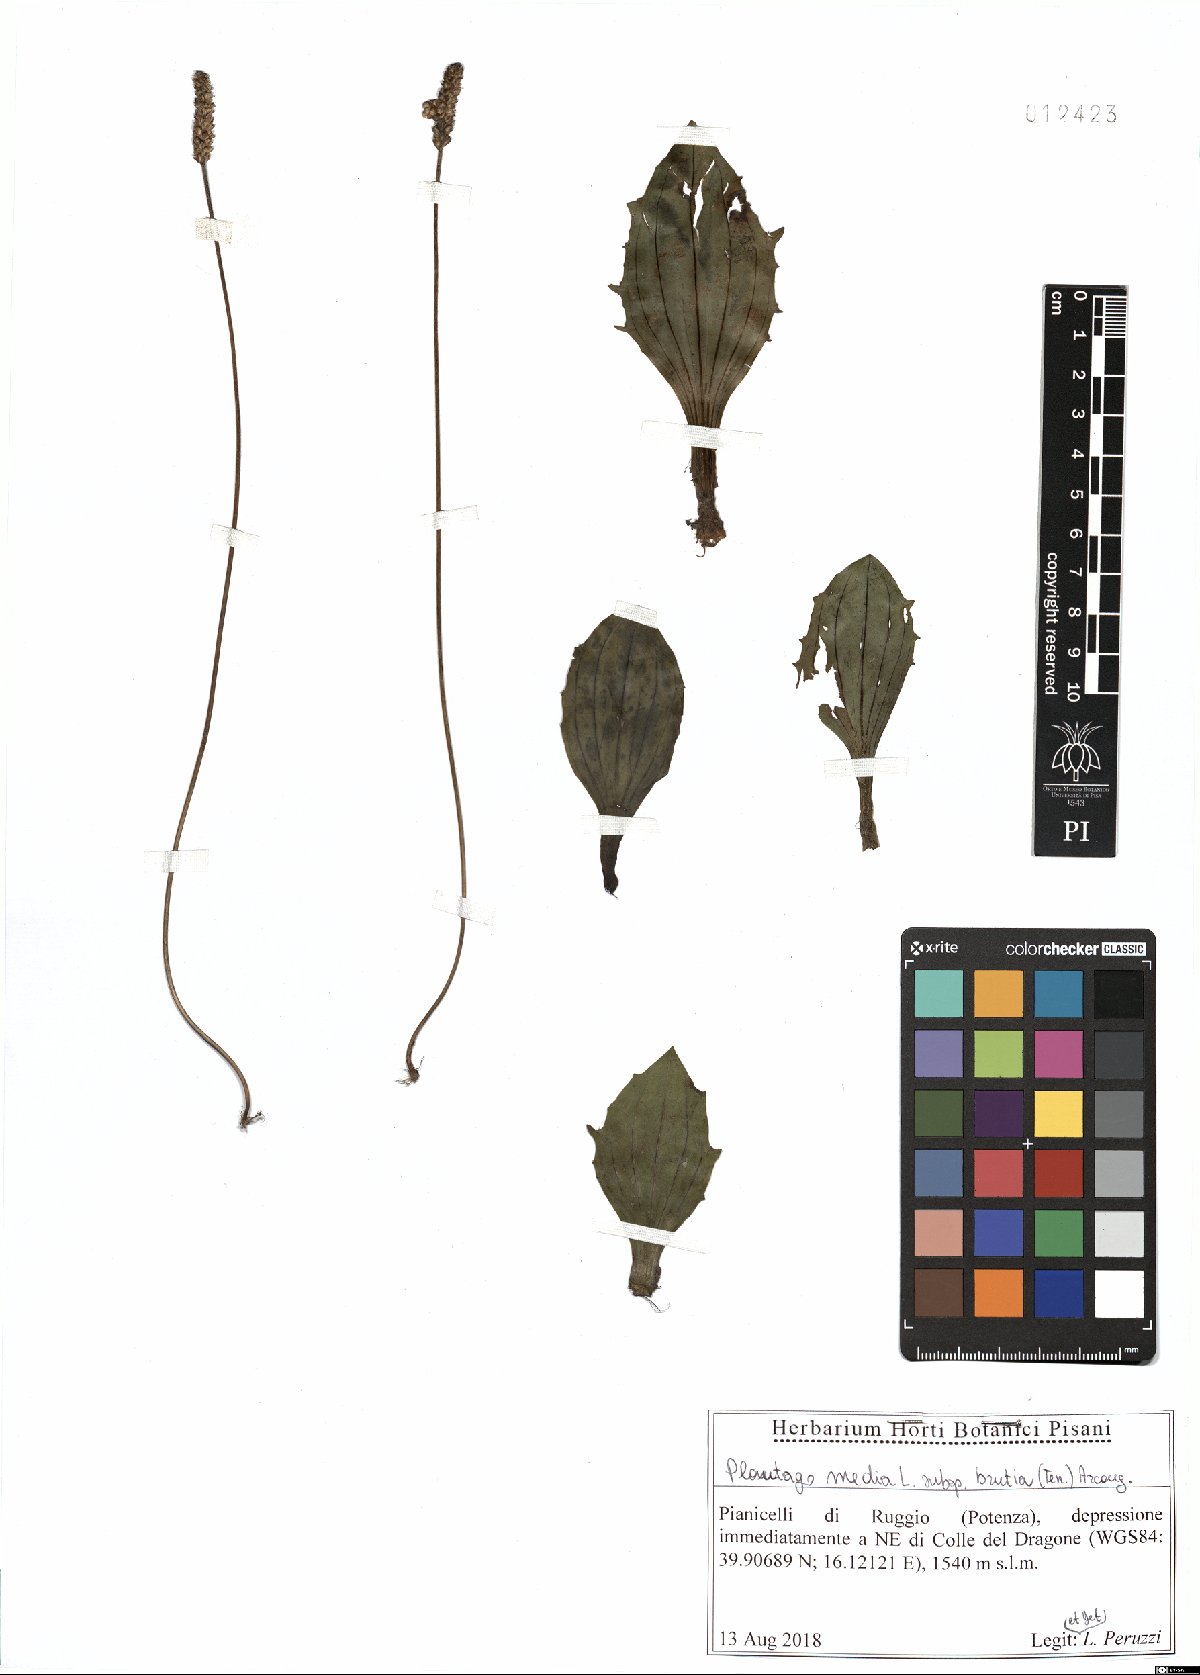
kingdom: Plantae
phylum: Tracheophyta
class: Magnoliopsida
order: Lamiales
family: Plantaginaceae
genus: Plantago
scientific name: Plantago media
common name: Hoary plantain
